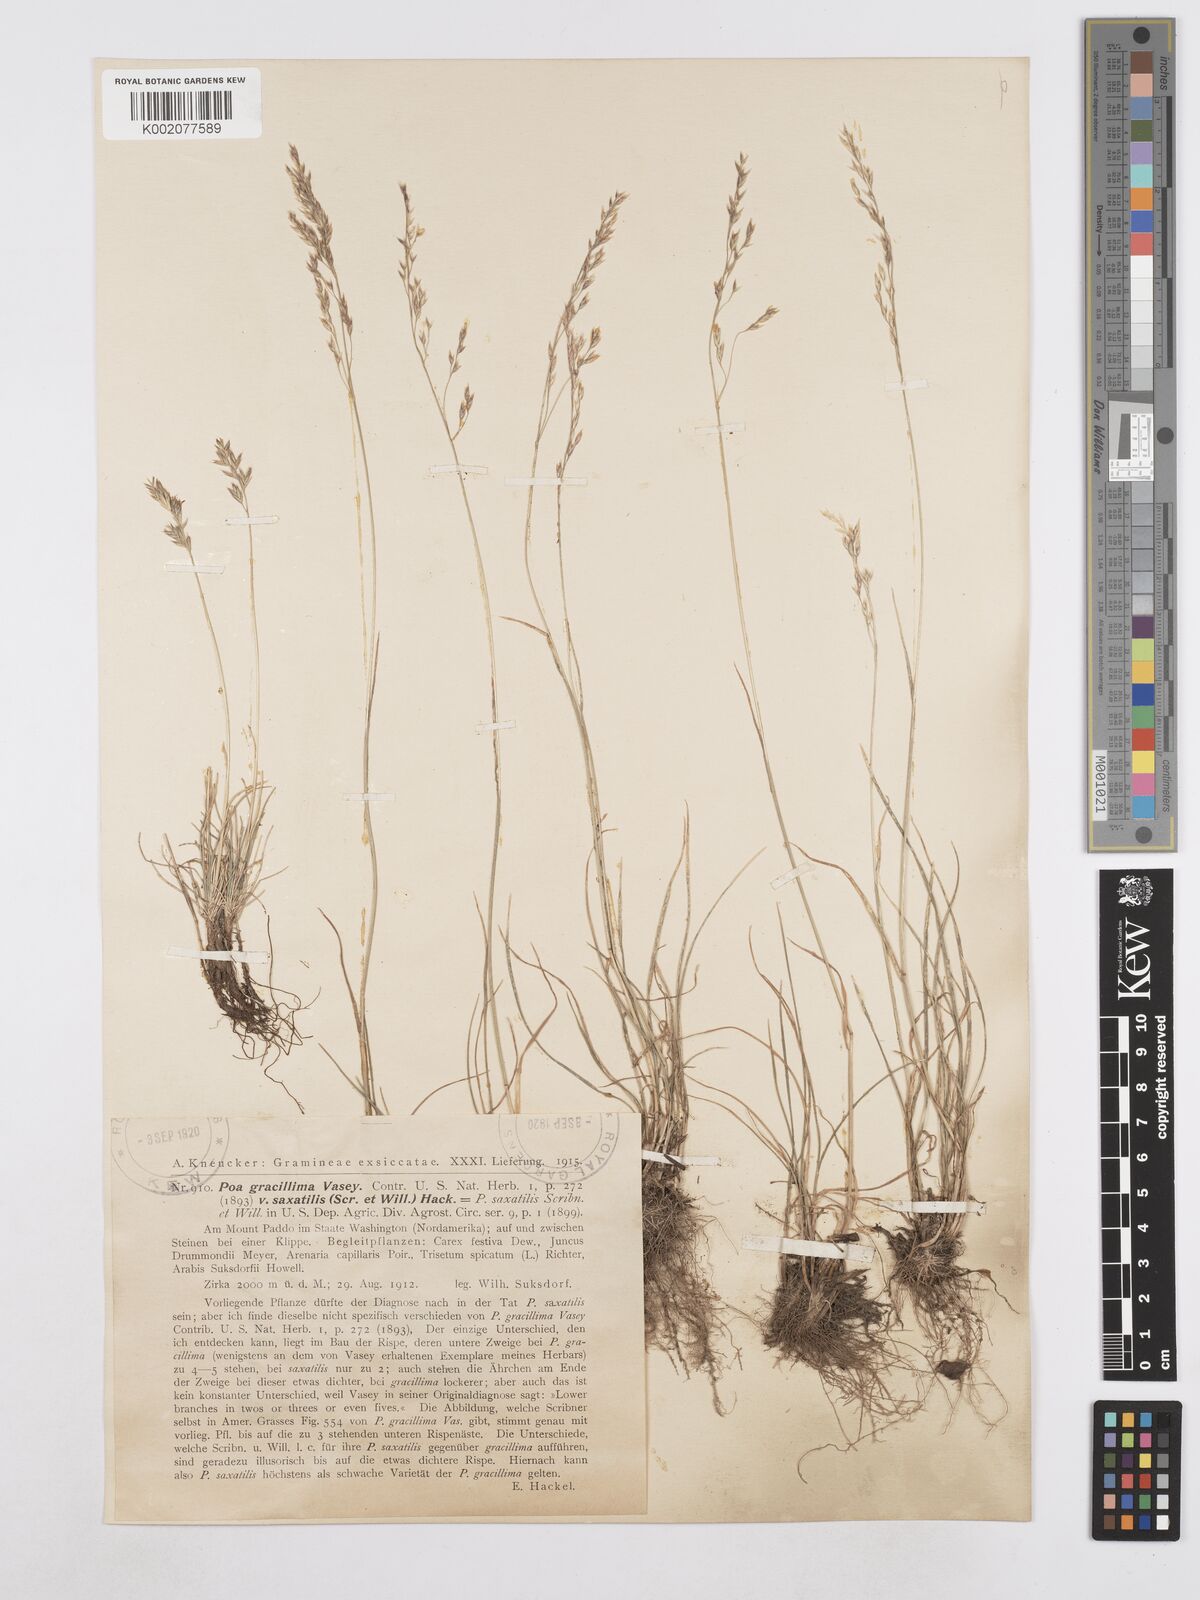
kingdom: Plantae
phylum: Tracheophyta
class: Liliopsida
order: Poales
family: Poaceae
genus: Poa
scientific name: Poa secunda
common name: Sandberg bluegrass
